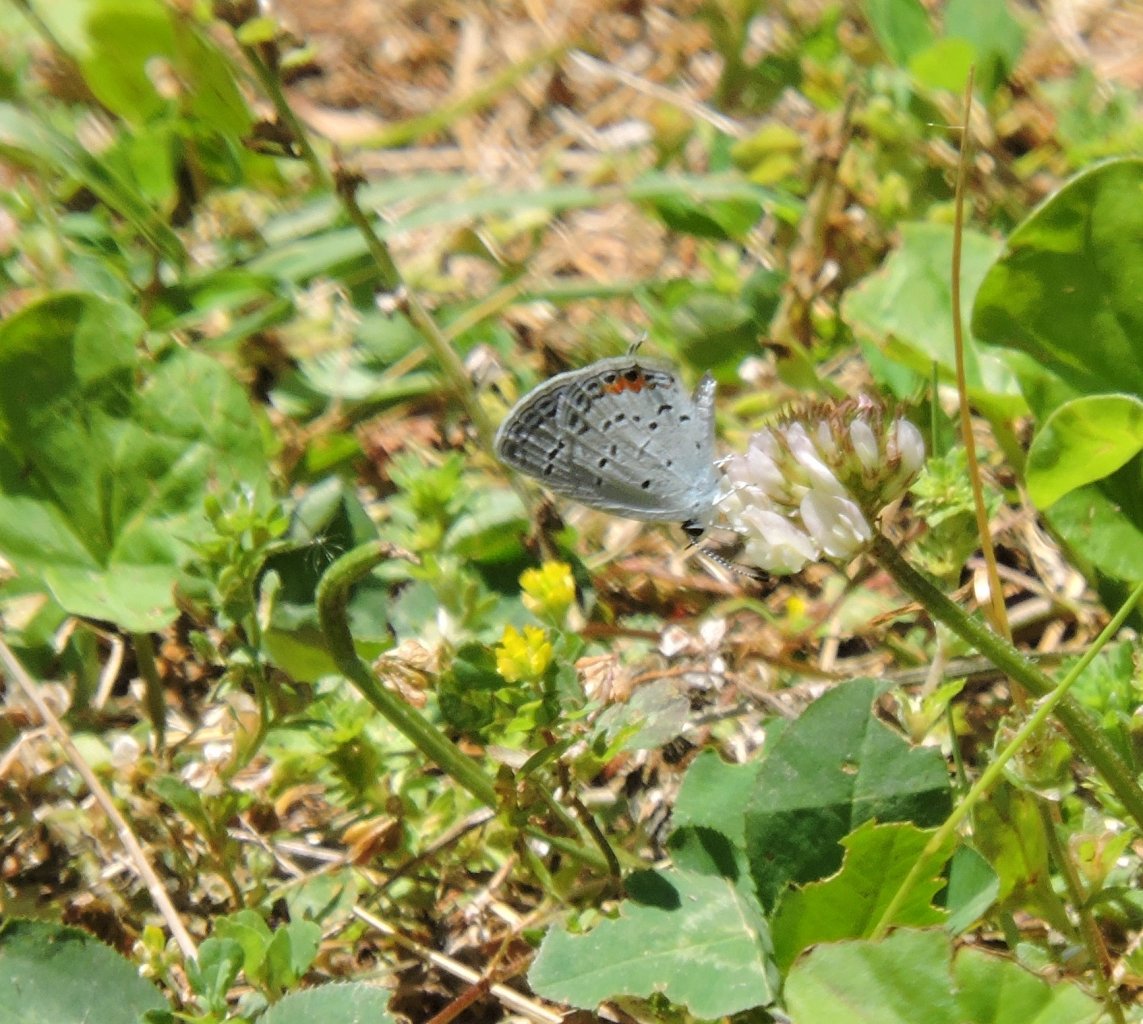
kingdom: Animalia
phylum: Arthropoda
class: Insecta
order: Lepidoptera
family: Lycaenidae
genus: Elkalyce
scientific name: Elkalyce comyntas
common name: Eastern Tailed-Blue
